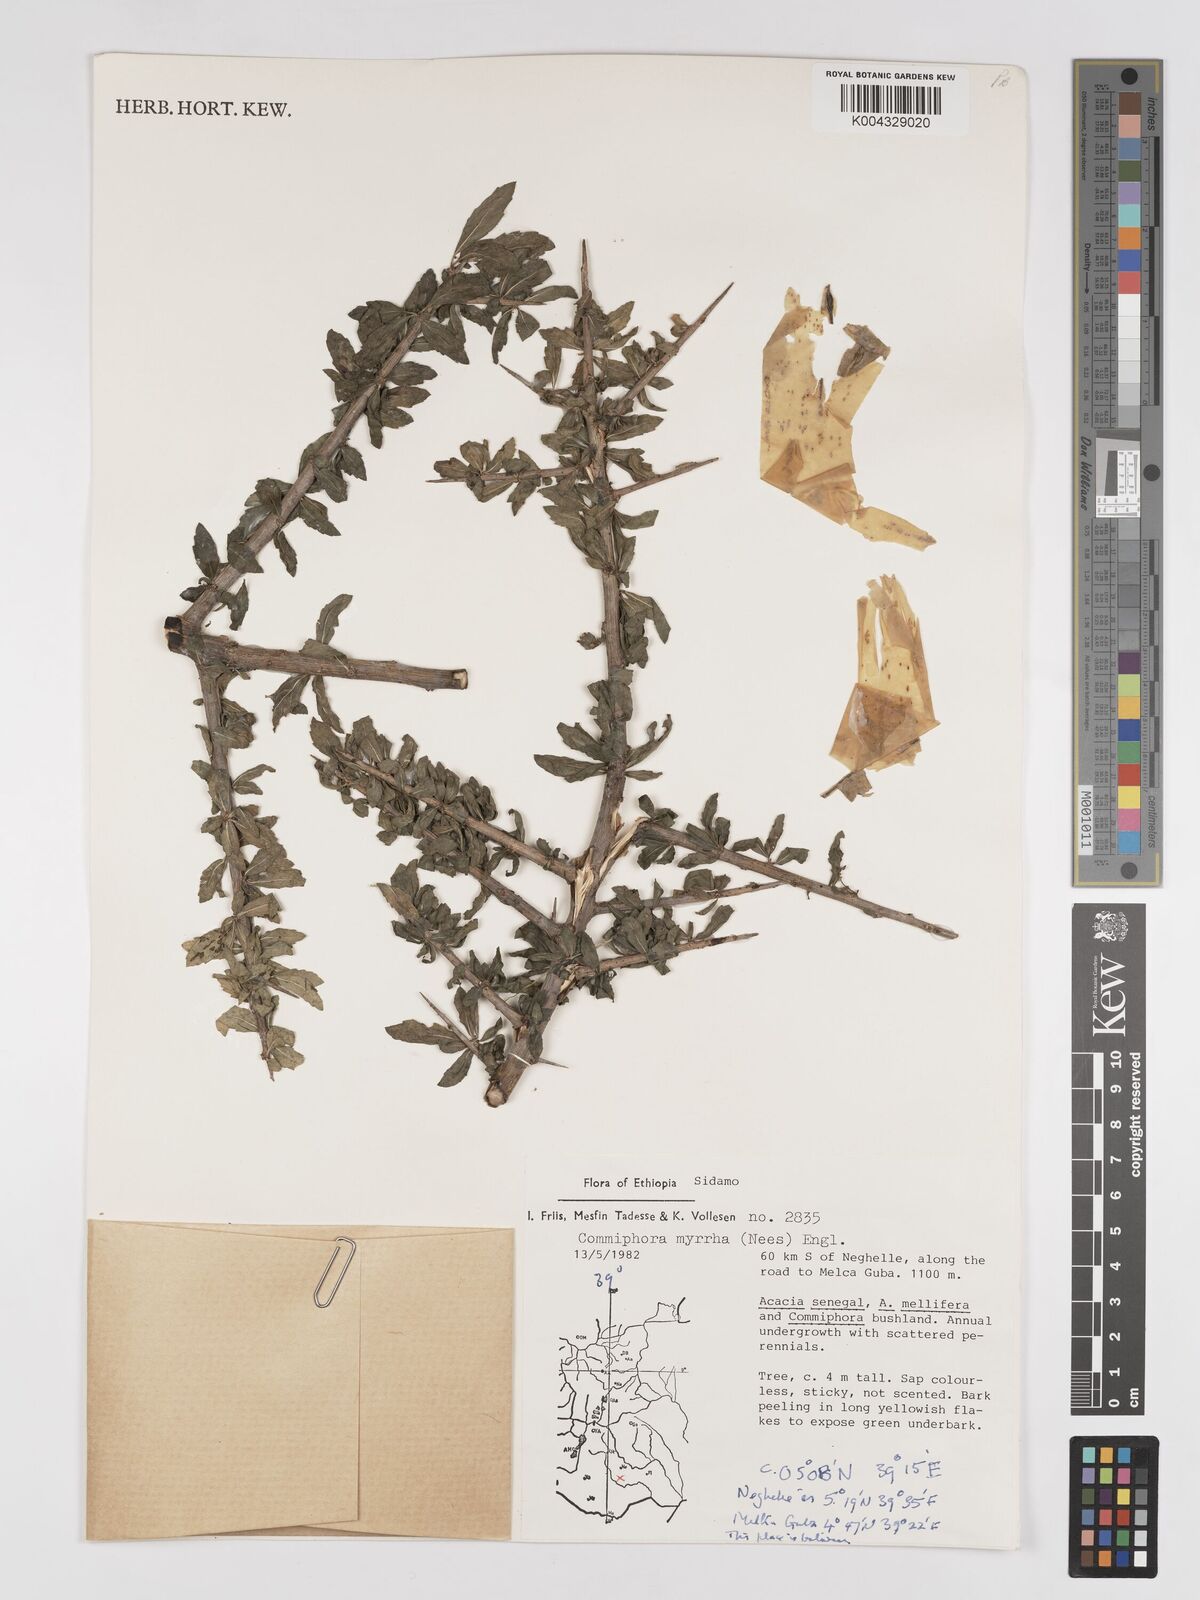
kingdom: Plantae
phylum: Tracheophyta
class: Magnoliopsida
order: Sapindales
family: Burseraceae
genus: Commiphora
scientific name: Commiphora myrrha
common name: African myrrh
